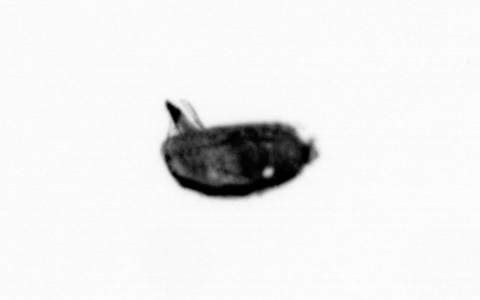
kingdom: Animalia
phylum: Arthropoda
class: Maxillopoda
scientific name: Maxillopoda
